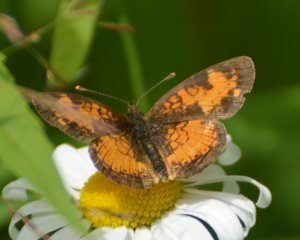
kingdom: Animalia
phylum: Arthropoda
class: Insecta
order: Lepidoptera
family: Nymphalidae
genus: Phyciodes
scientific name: Phyciodes tharos
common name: Northern Crescent
